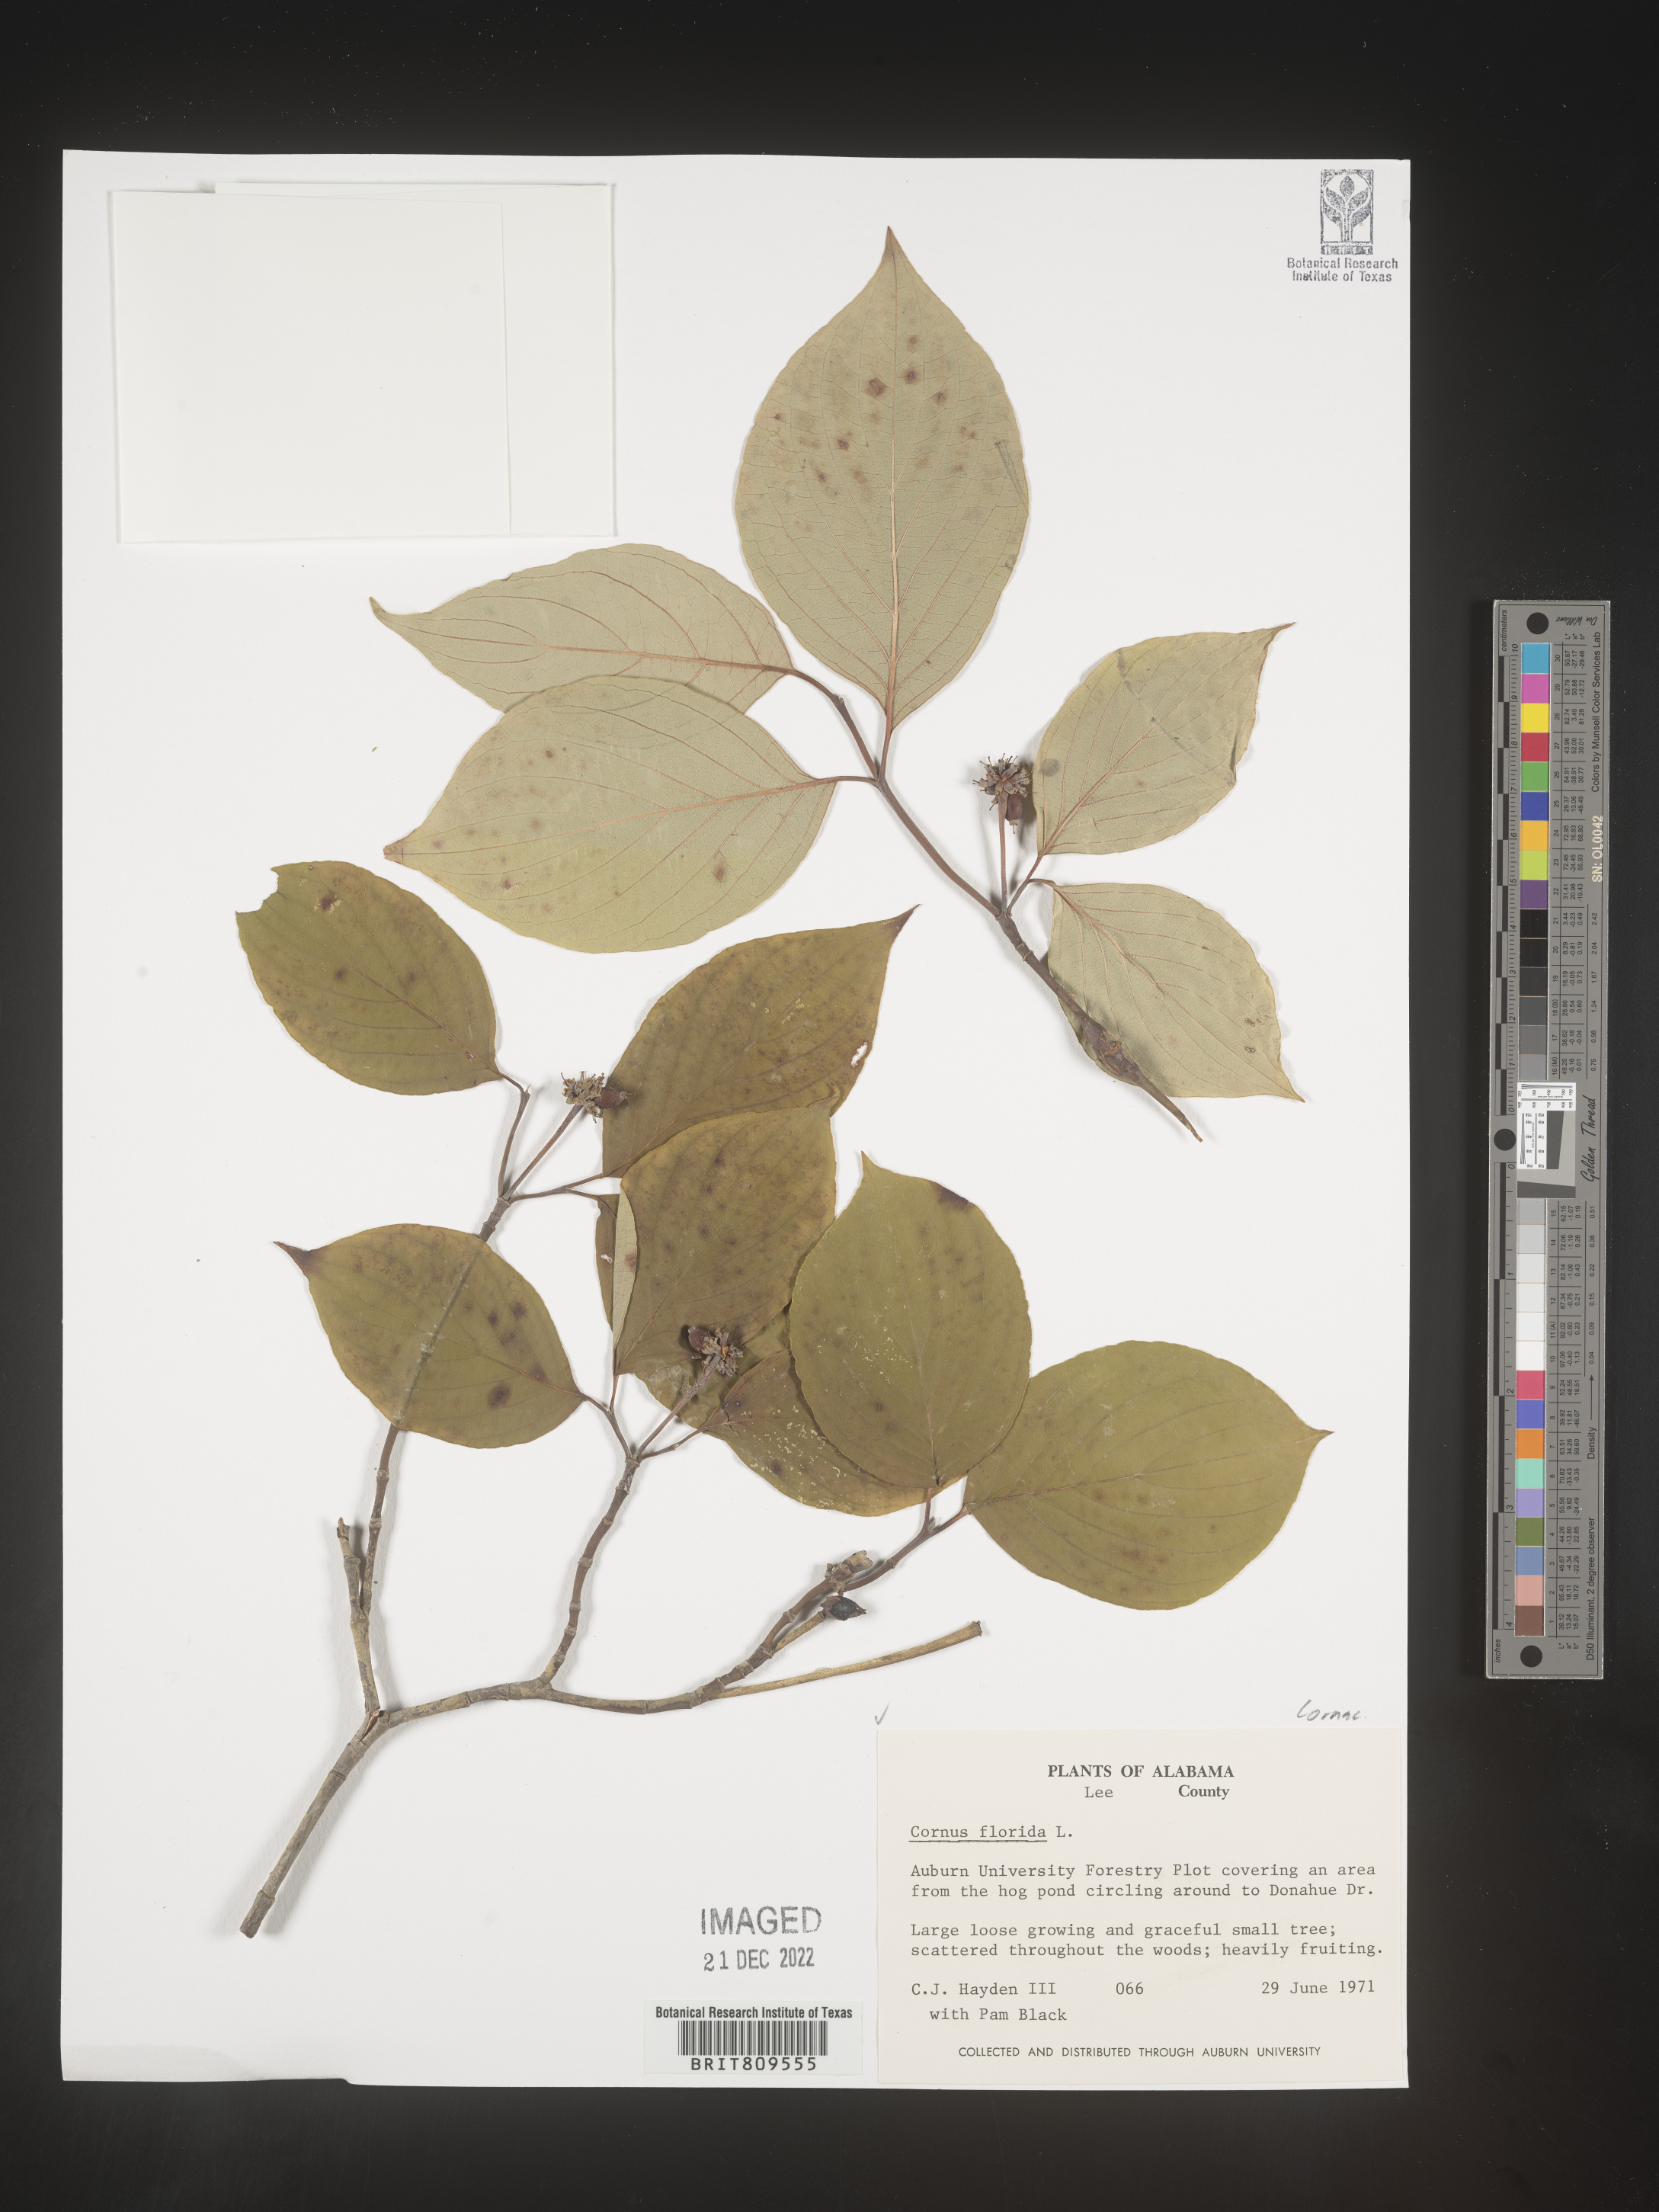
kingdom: Plantae
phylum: Tracheophyta
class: Magnoliopsida
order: Cornales
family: Cornaceae
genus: Cornus
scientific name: Cornus florida
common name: Flowering dogwood
